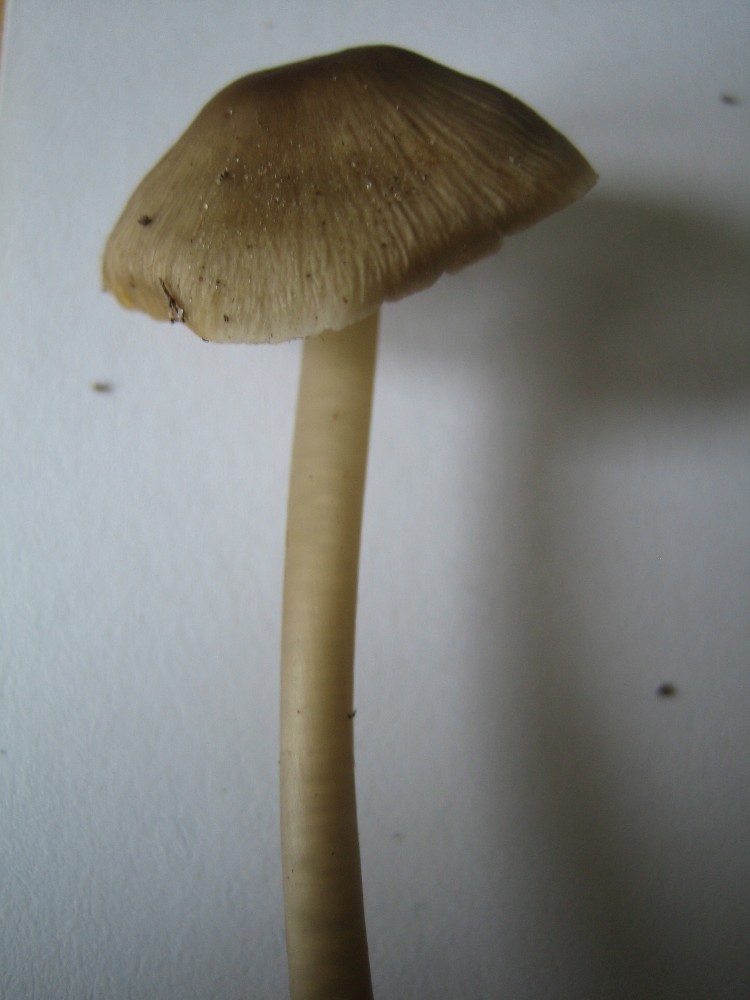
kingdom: Fungi
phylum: Basidiomycota
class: Agaricomycetes
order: Agaricales
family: Mycenaceae
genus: Mycena
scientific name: Mycena galericulata
